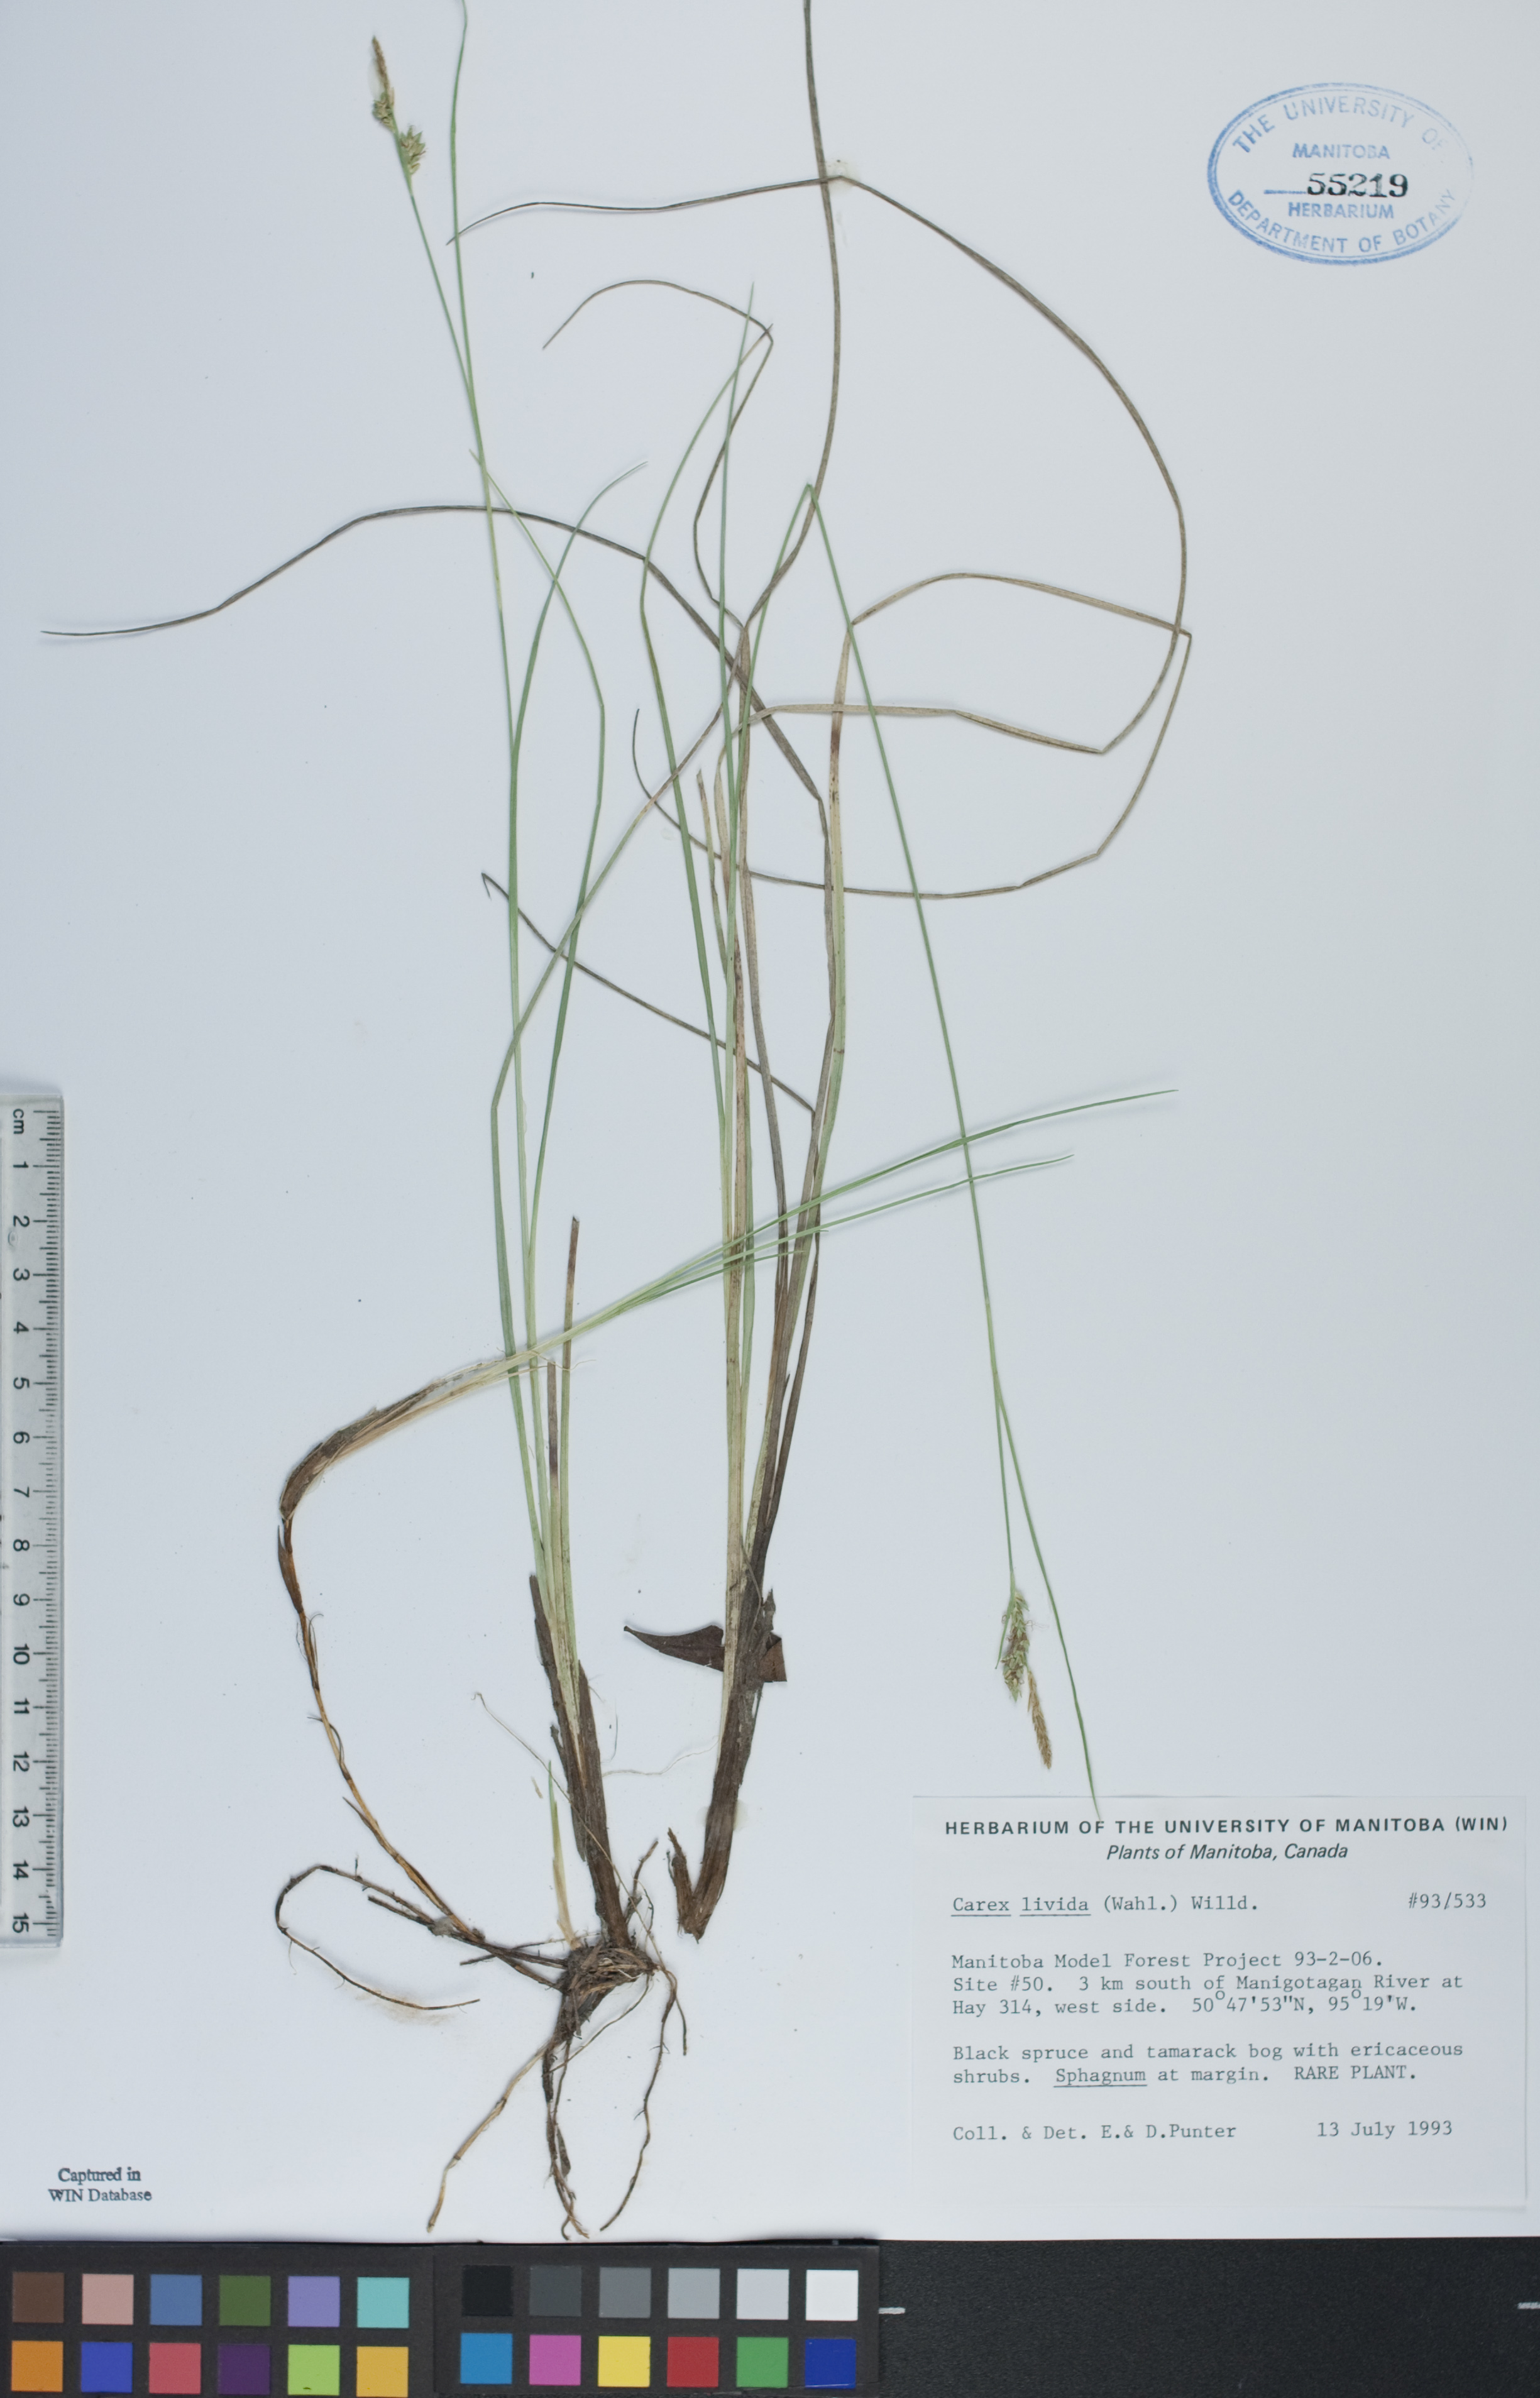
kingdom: Plantae
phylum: Tracheophyta
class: Liliopsida
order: Poales
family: Cyperaceae
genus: Carex
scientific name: Carex livida
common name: Livid sedge
